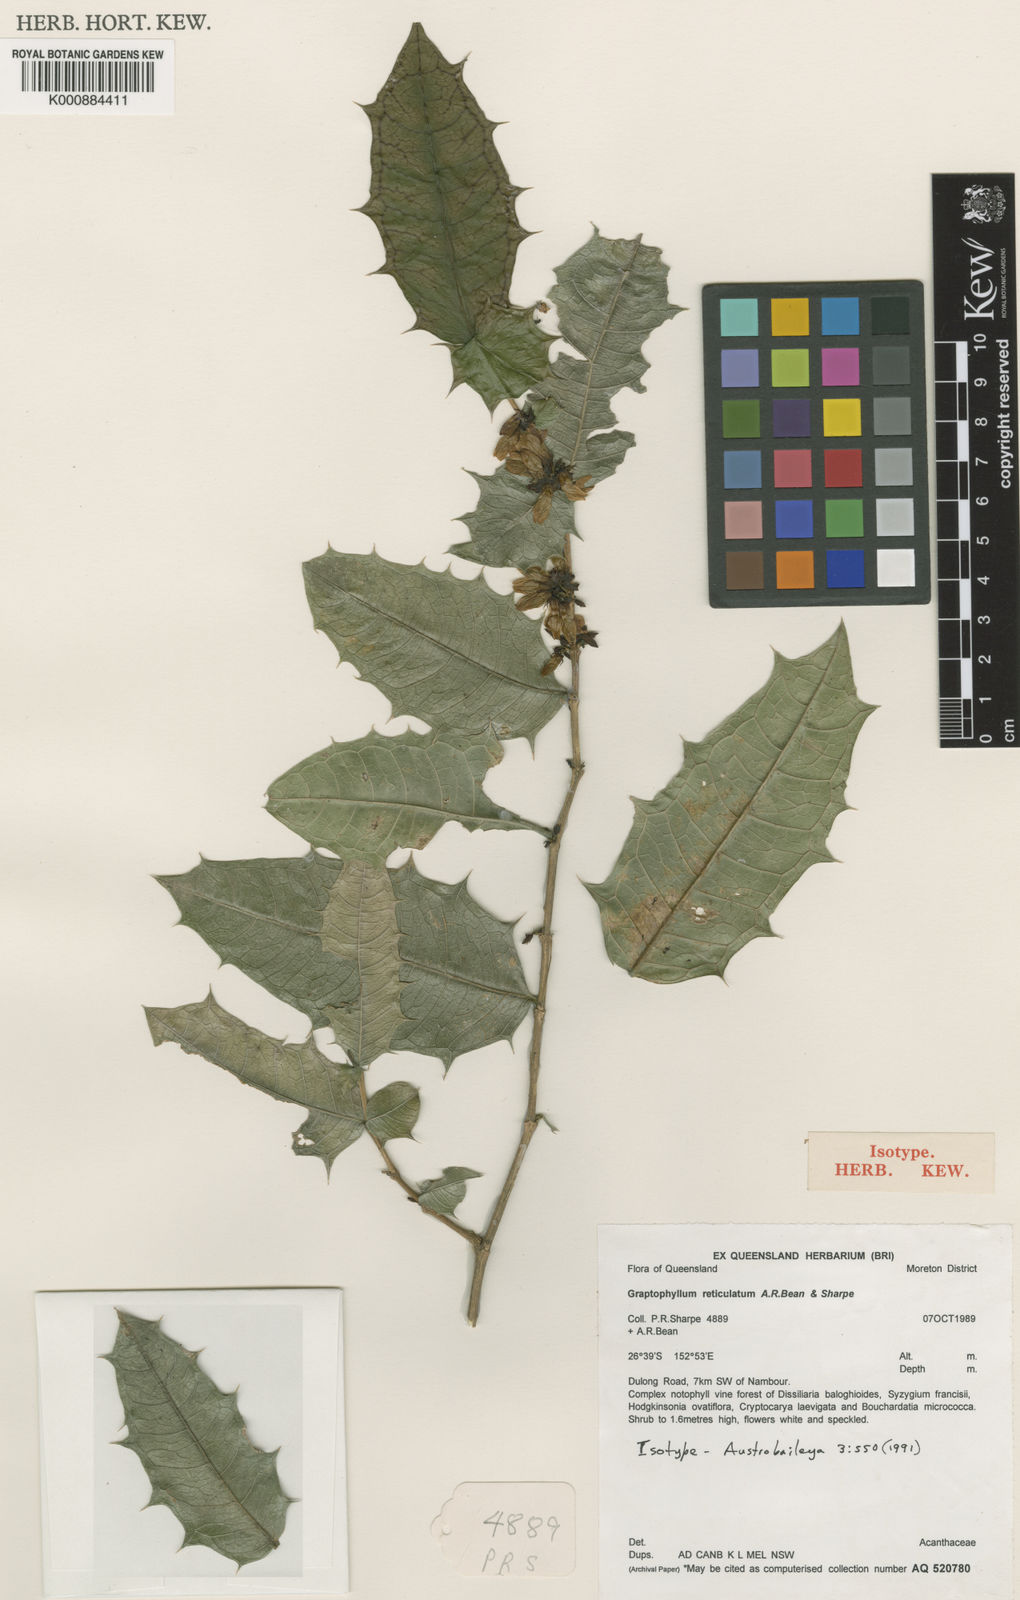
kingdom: Plantae
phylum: Tracheophyta
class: Magnoliopsida
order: Lamiales
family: Acanthaceae
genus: Graptophyllum
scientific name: Graptophyllum reticulatum
